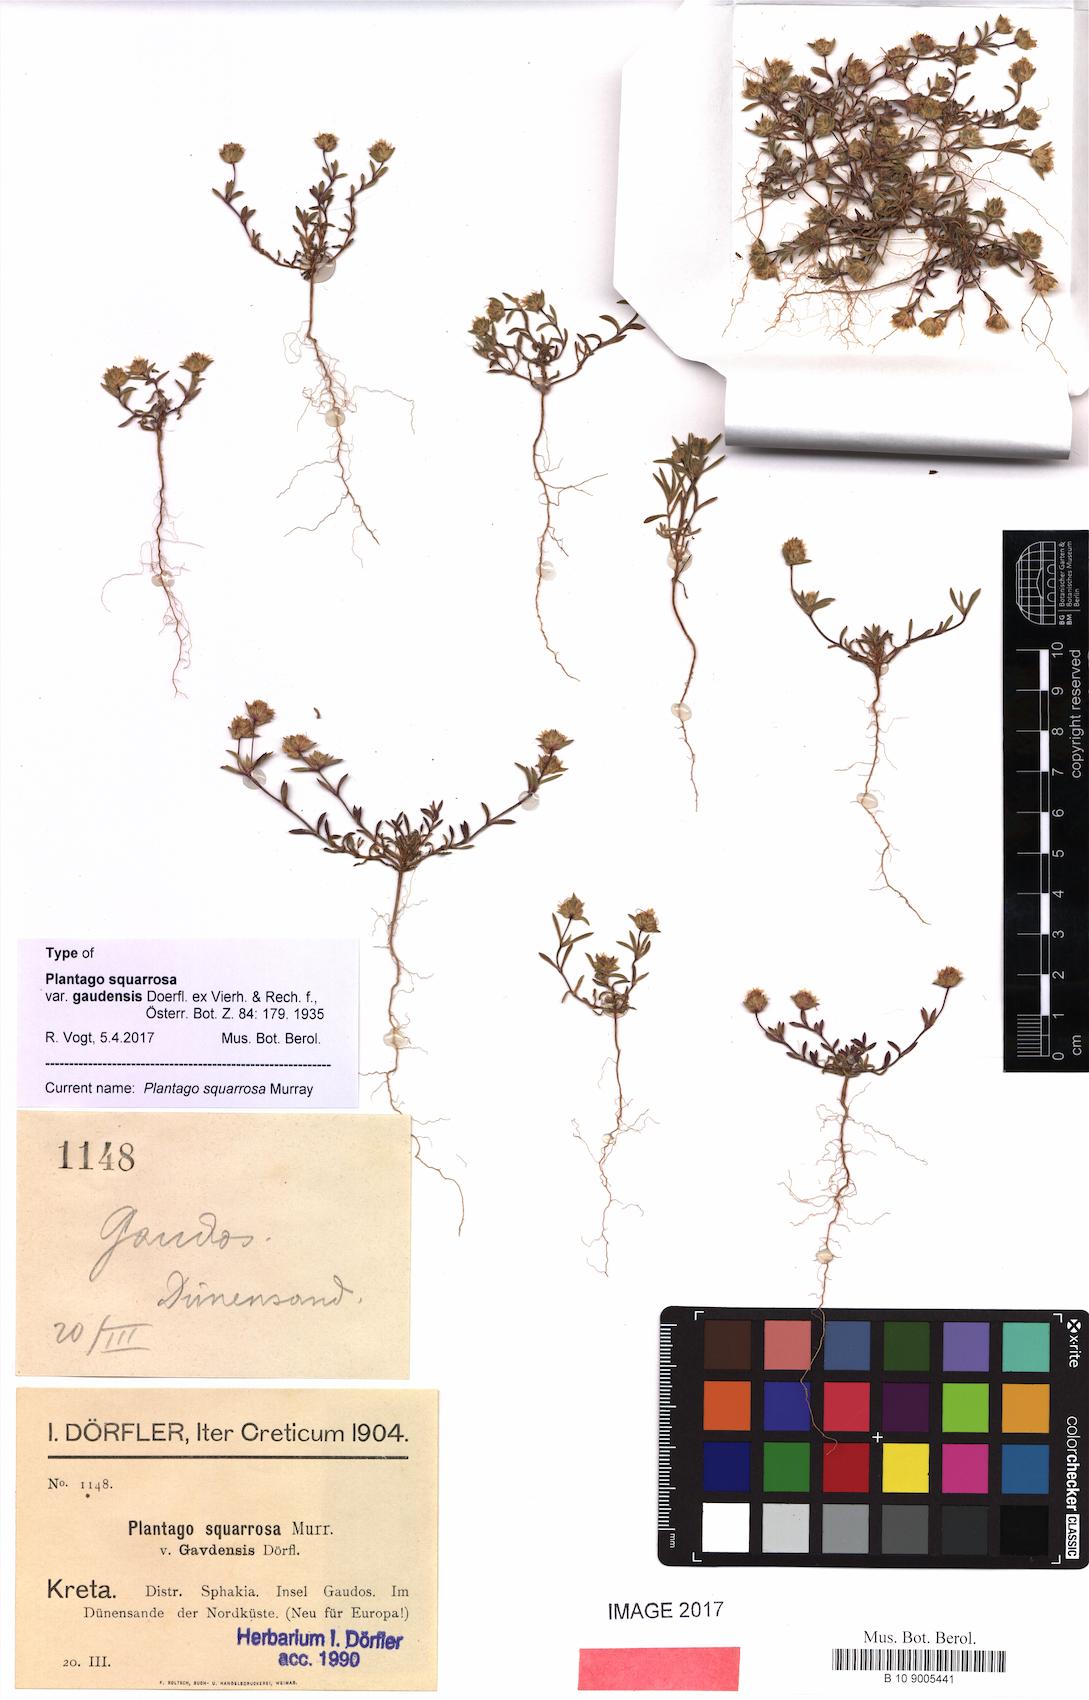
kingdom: Plantae
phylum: Tracheophyta
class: Magnoliopsida
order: Lamiales
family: Plantaginaceae
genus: Plantago
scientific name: Plantago squarrosa
